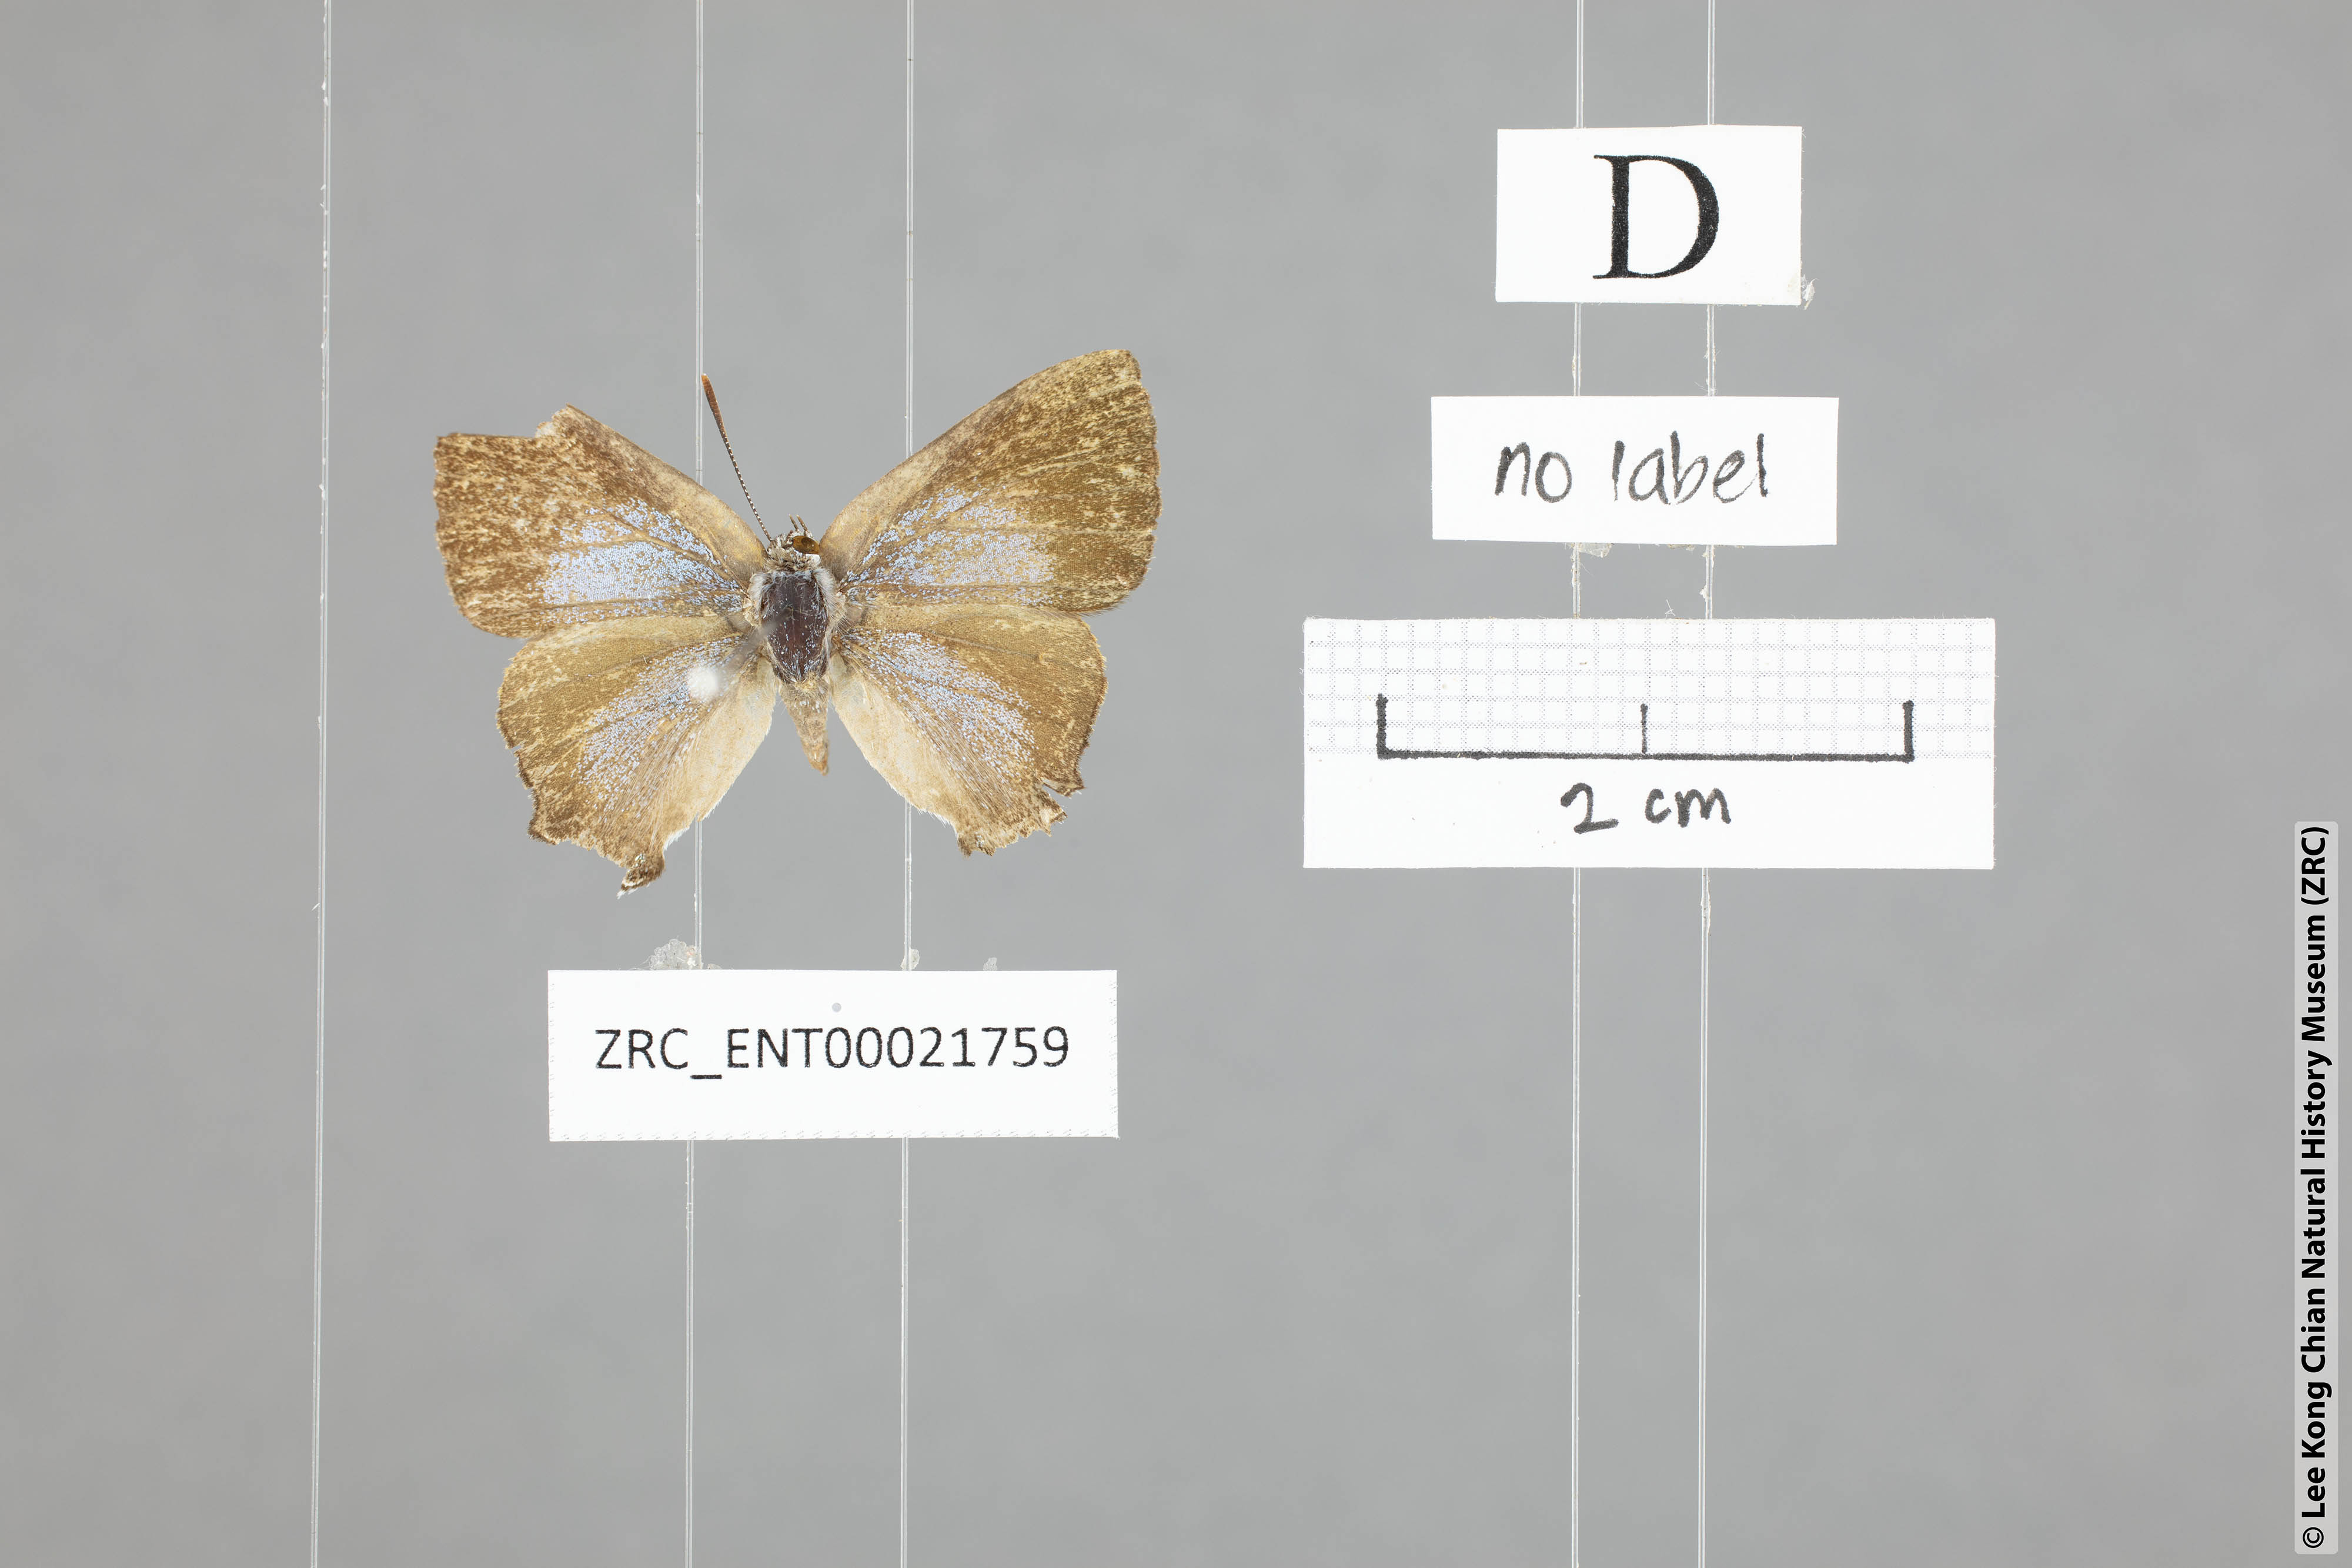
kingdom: Animalia
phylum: Arthropoda
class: Insecta
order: Lepidoptera
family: Lycaenidae
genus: Pseudomyrina
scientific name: Pseudomyrina
